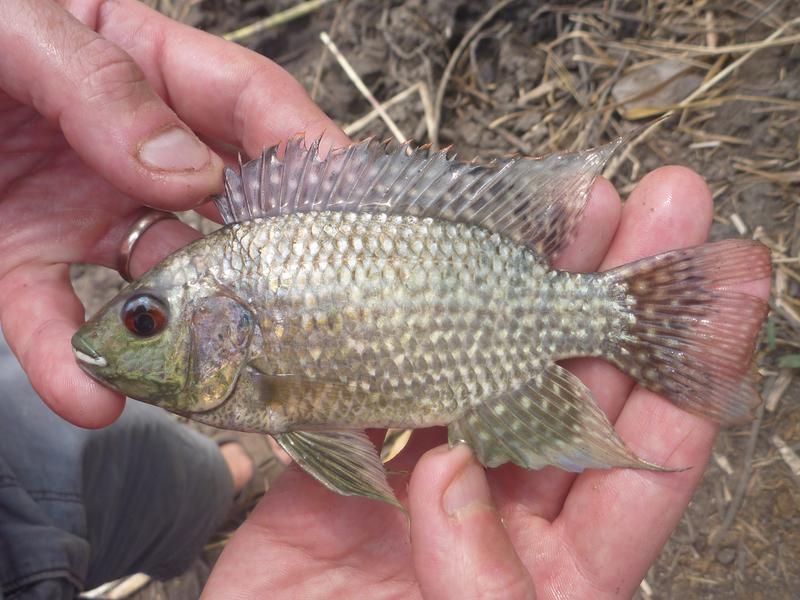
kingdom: Animalia
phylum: Chordata
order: Perciformes
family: Cichlidae
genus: Oreochromis
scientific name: Oreochromis leucostictus
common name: Blue spotted tilapia
